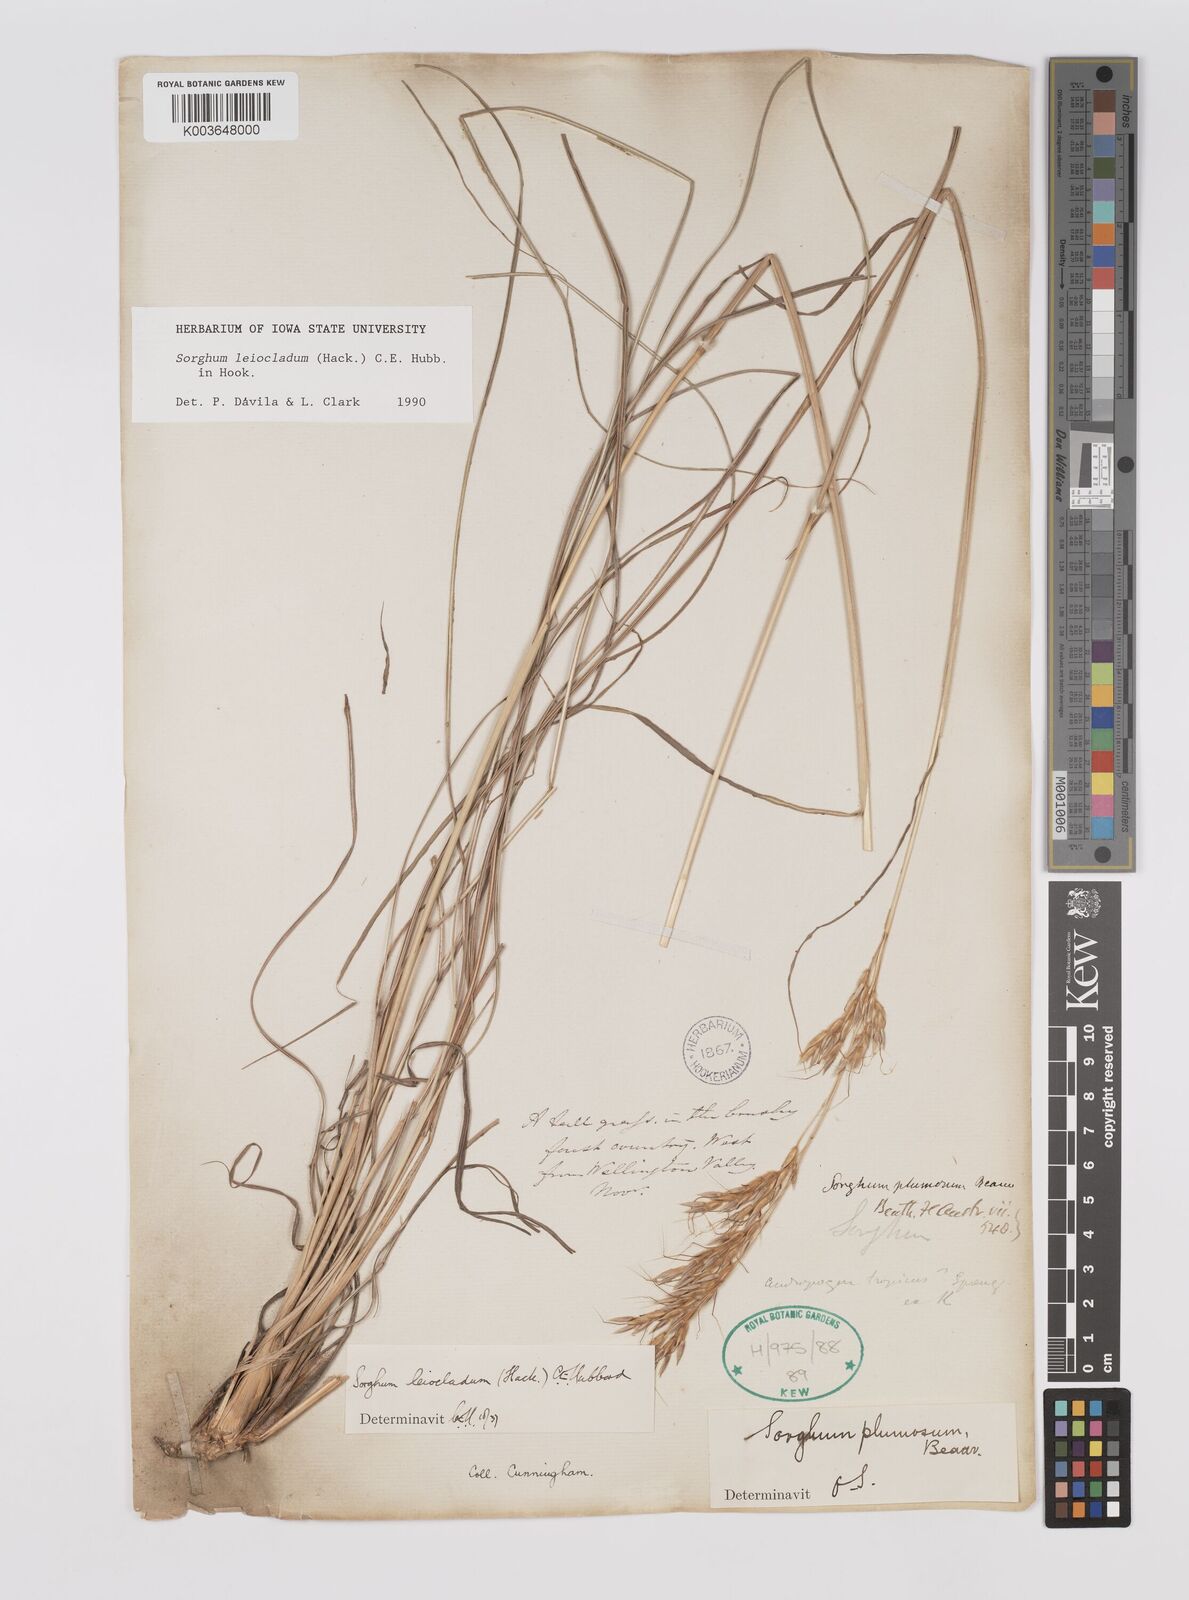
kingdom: Plantae
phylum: Tracheophyta
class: Liliopsida
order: Poales
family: Poaceae
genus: Sarga
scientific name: Sarga leioclada
